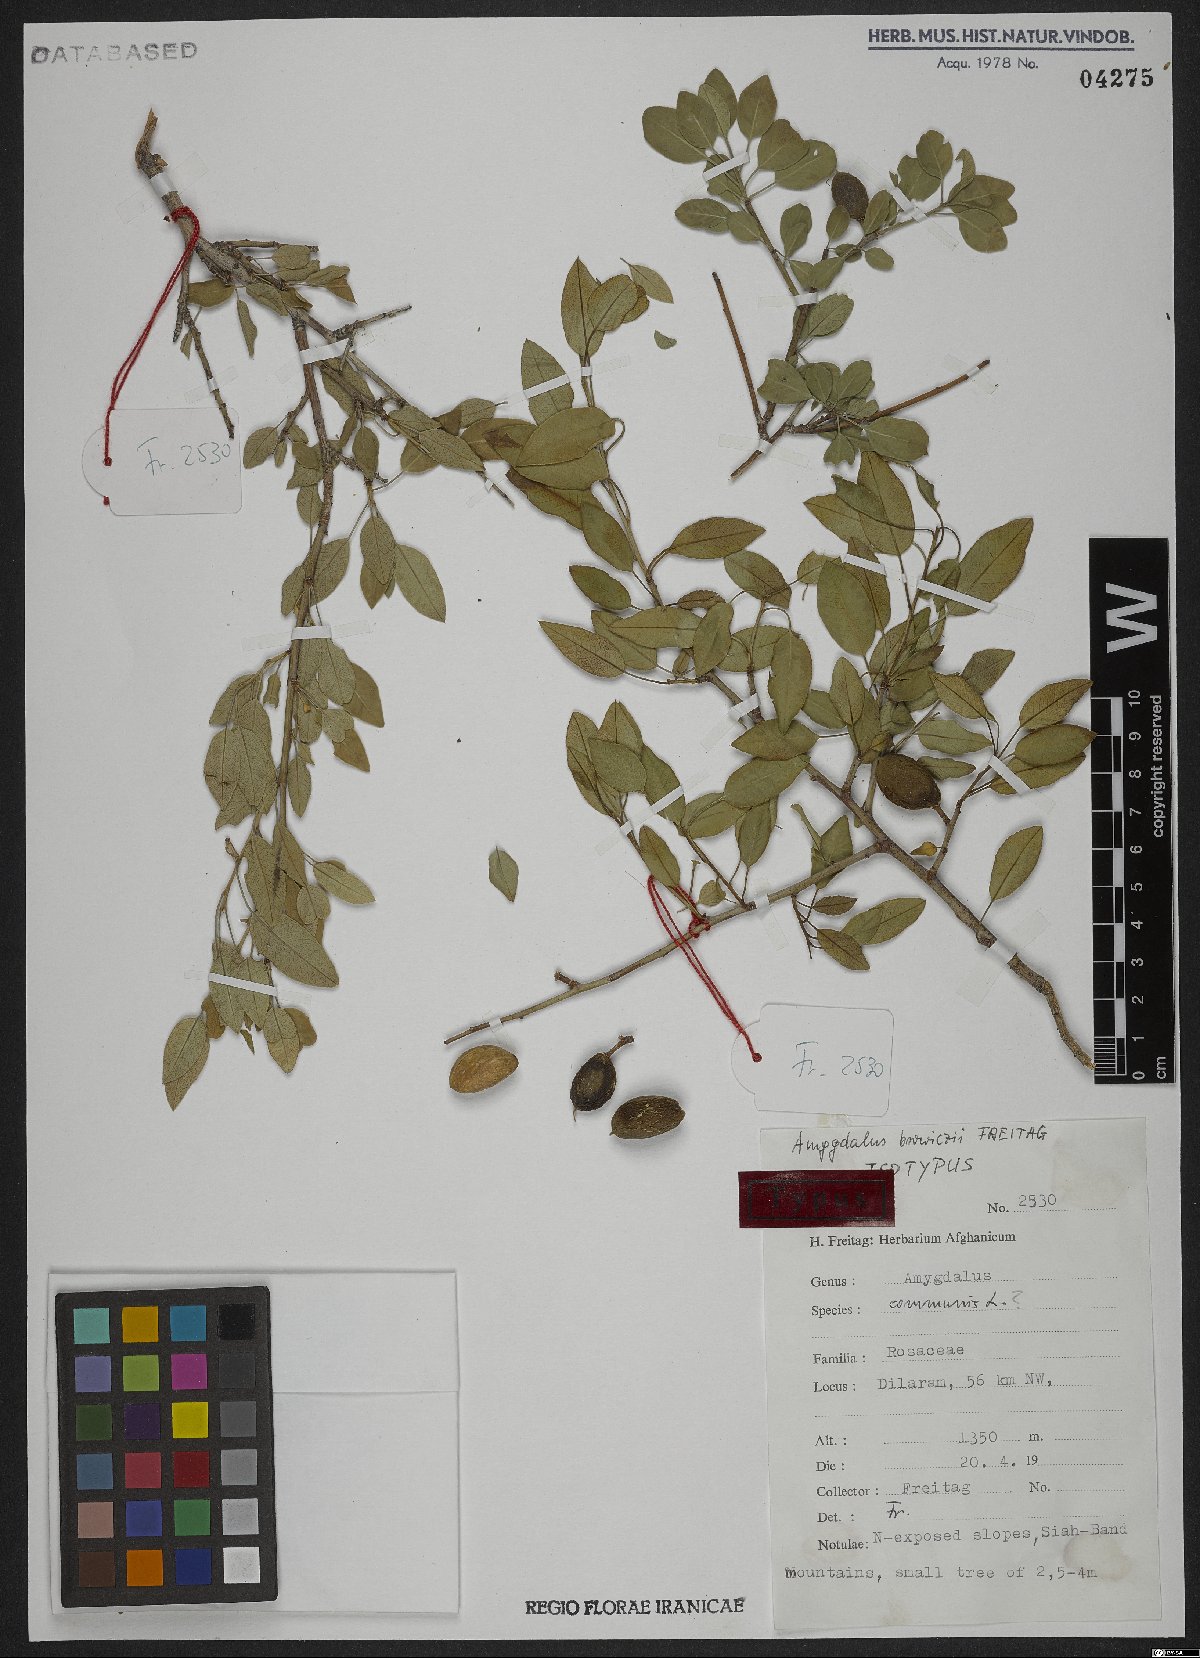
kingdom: Plantae
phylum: Tracheophyta
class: Magnoliopsida
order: Rosales
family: Rosaceae
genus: Prunus
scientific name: Prunus browiczii
